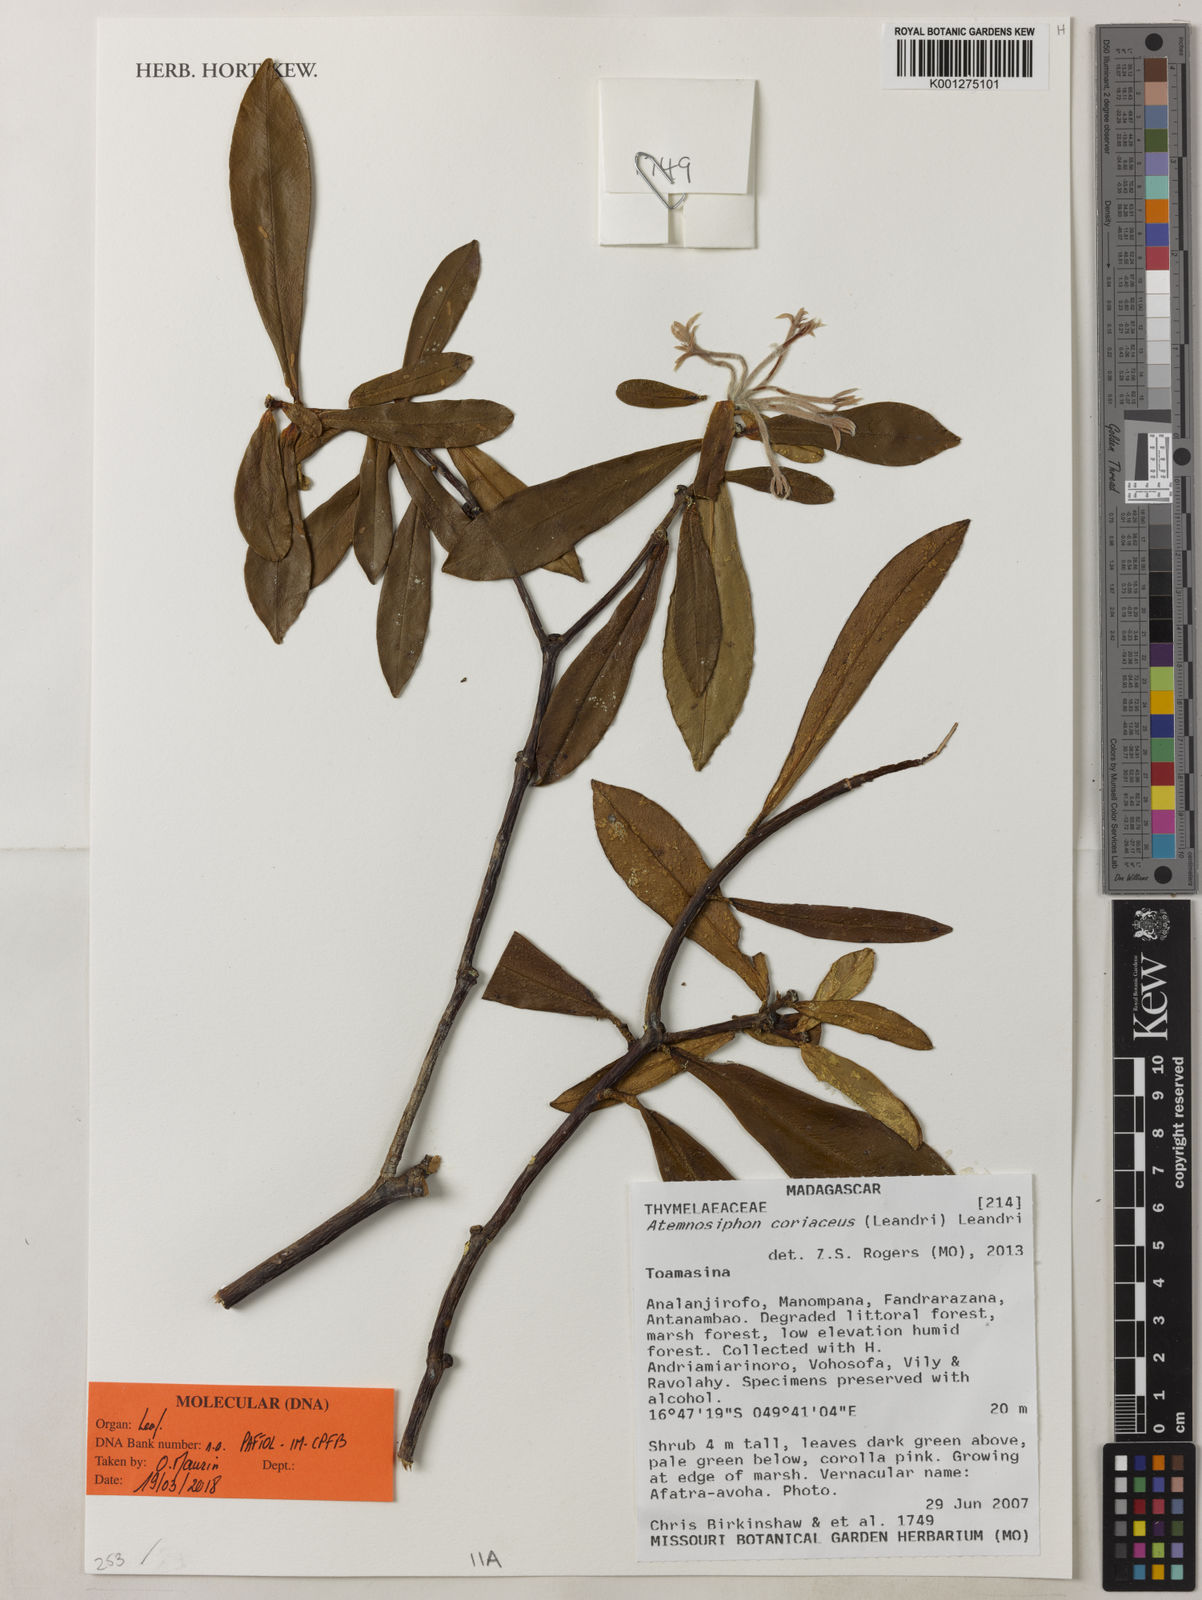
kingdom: Plantae
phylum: Tracheophyta
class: Magnoliopsida
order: Malvales
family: Thymelaeaceae
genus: Atemnosiphon
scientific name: Atemnosiphon coriaceus
